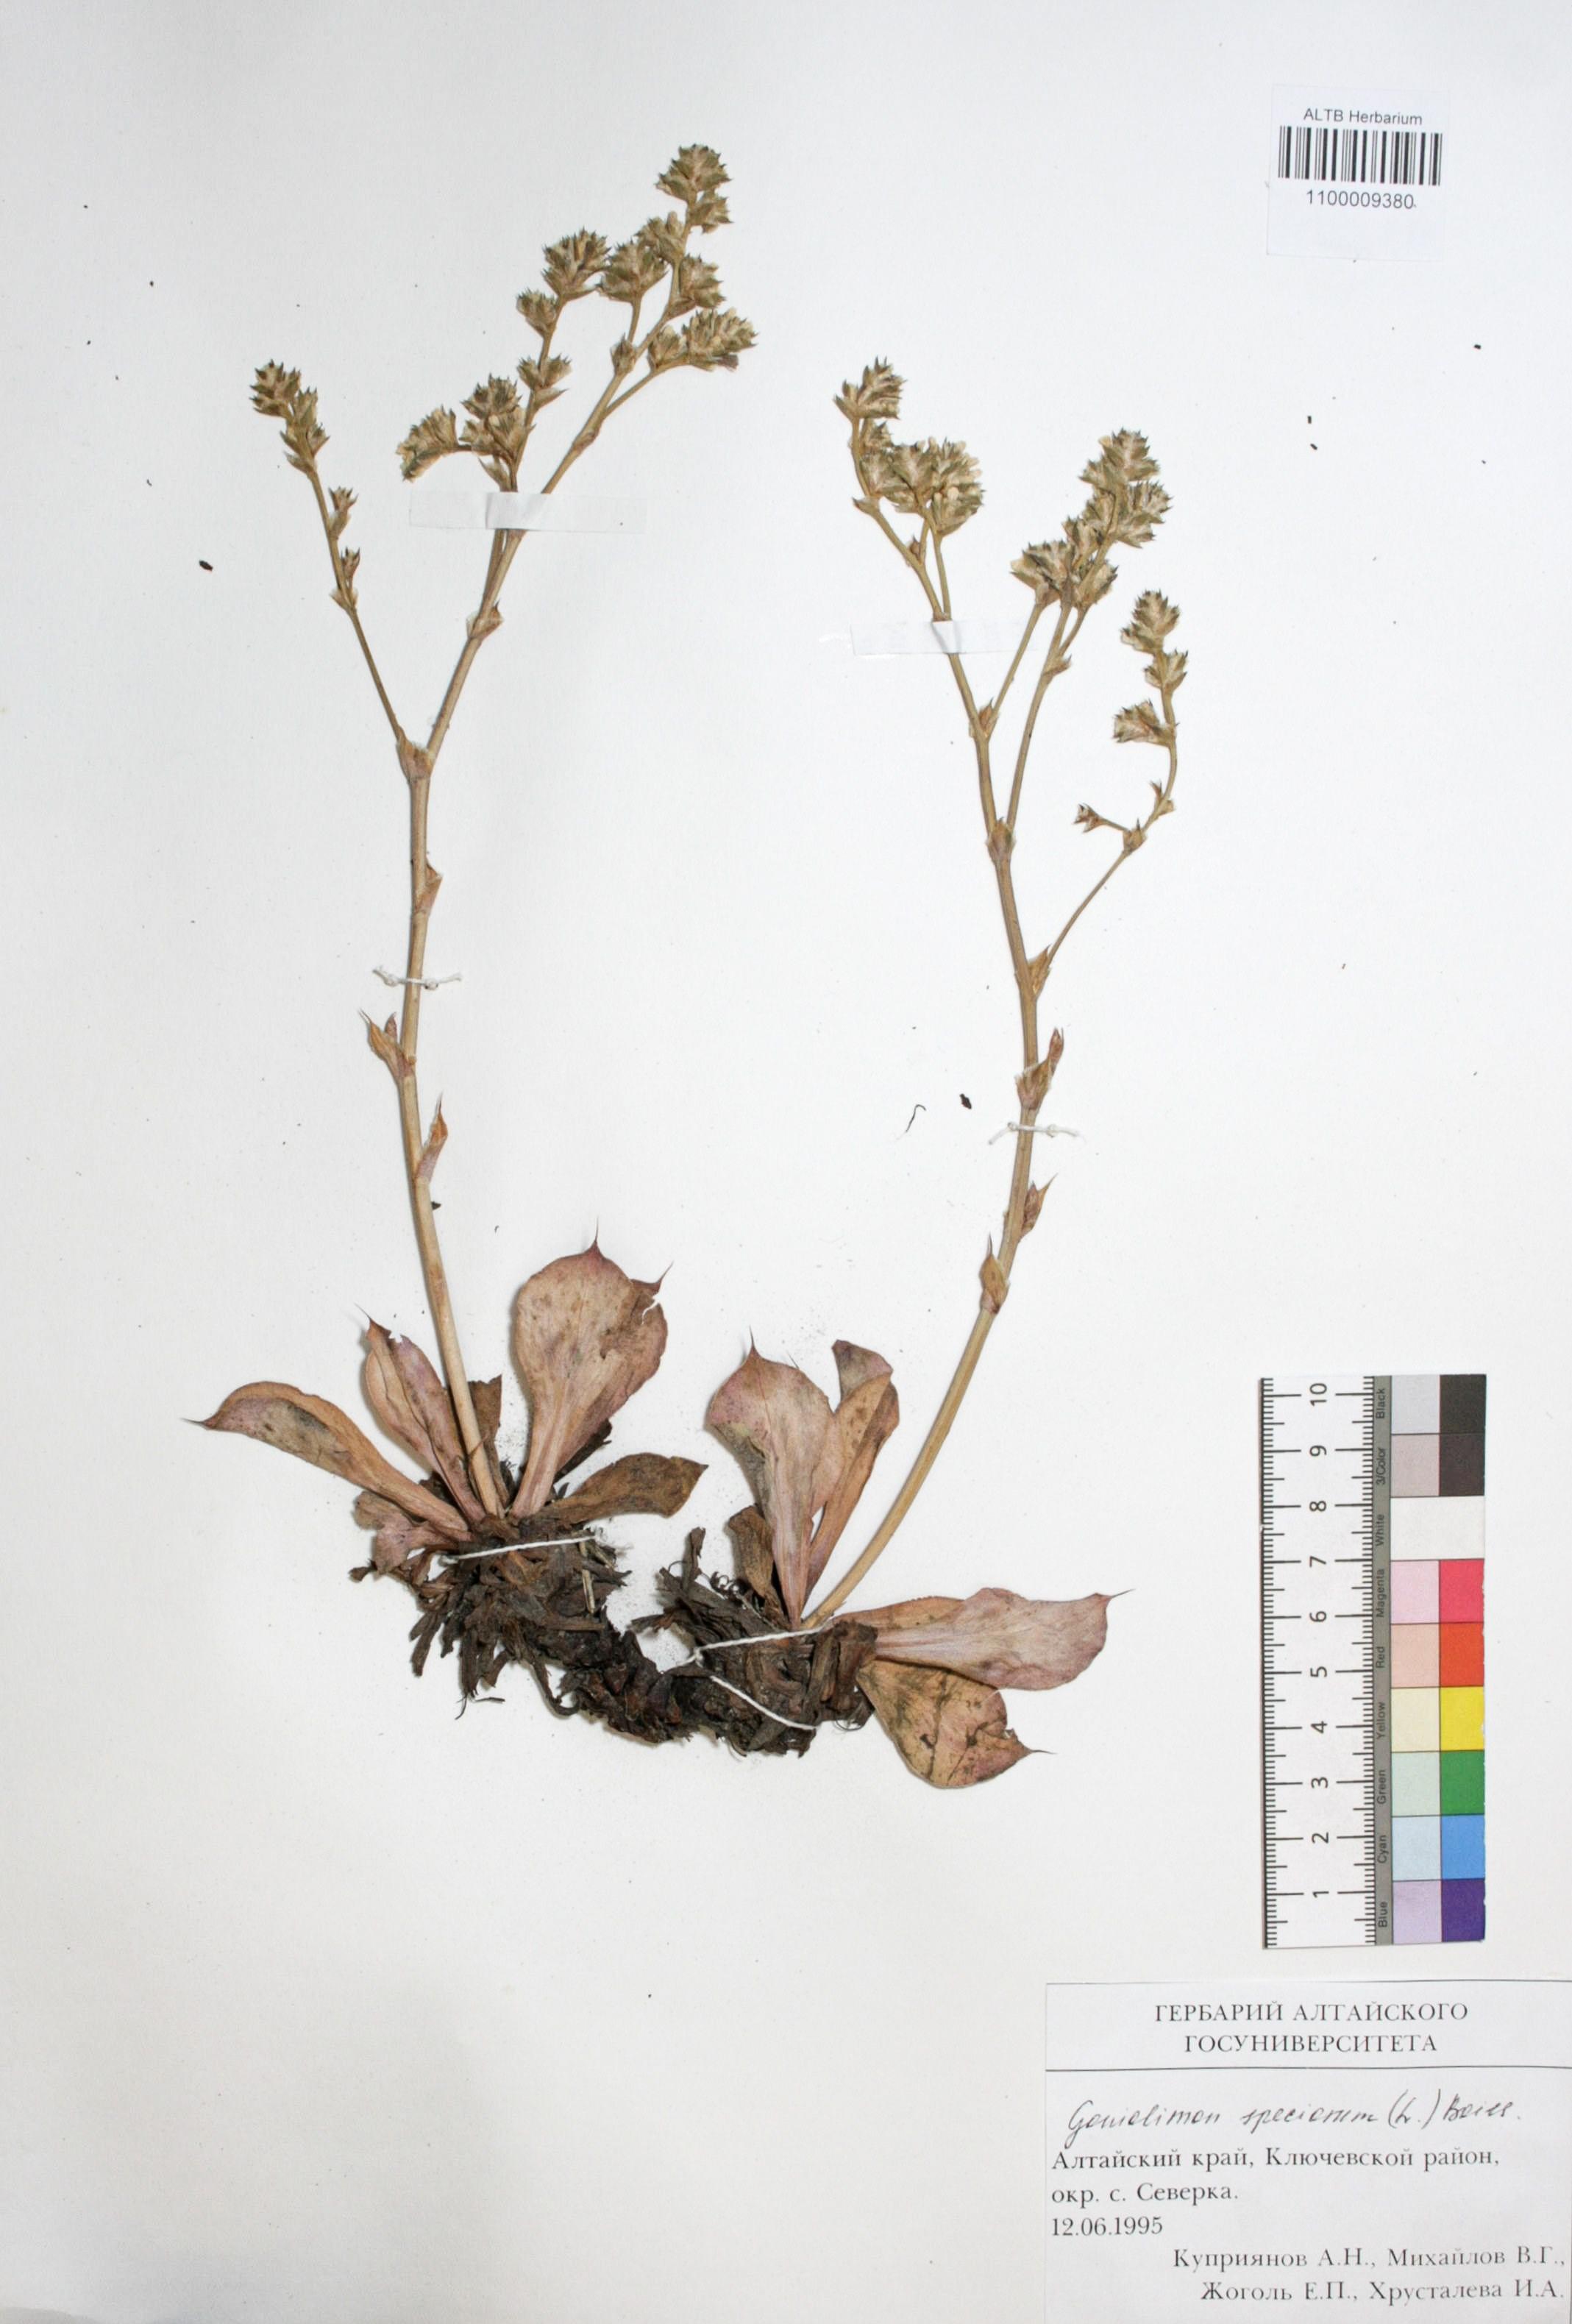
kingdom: Plantae
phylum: Tracheophyta
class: Magnoliopsida
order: Caryophyllales
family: Plumbaginaceae
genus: Goniolimon
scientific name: Goniolimon speciosum
